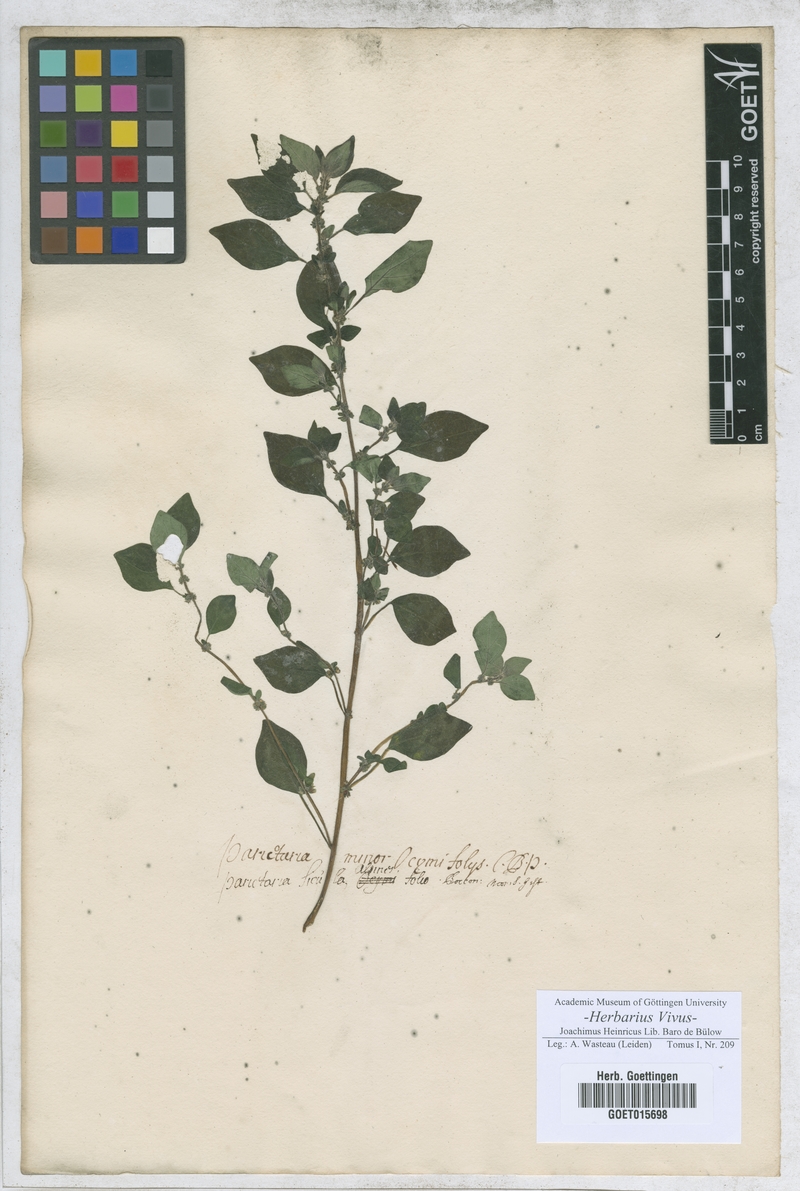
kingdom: Plantae
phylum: Tracheophyta
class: Magnoliopsida
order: Rosales
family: Urticaceae
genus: Parietaria
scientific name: Parietaria lusitanica
